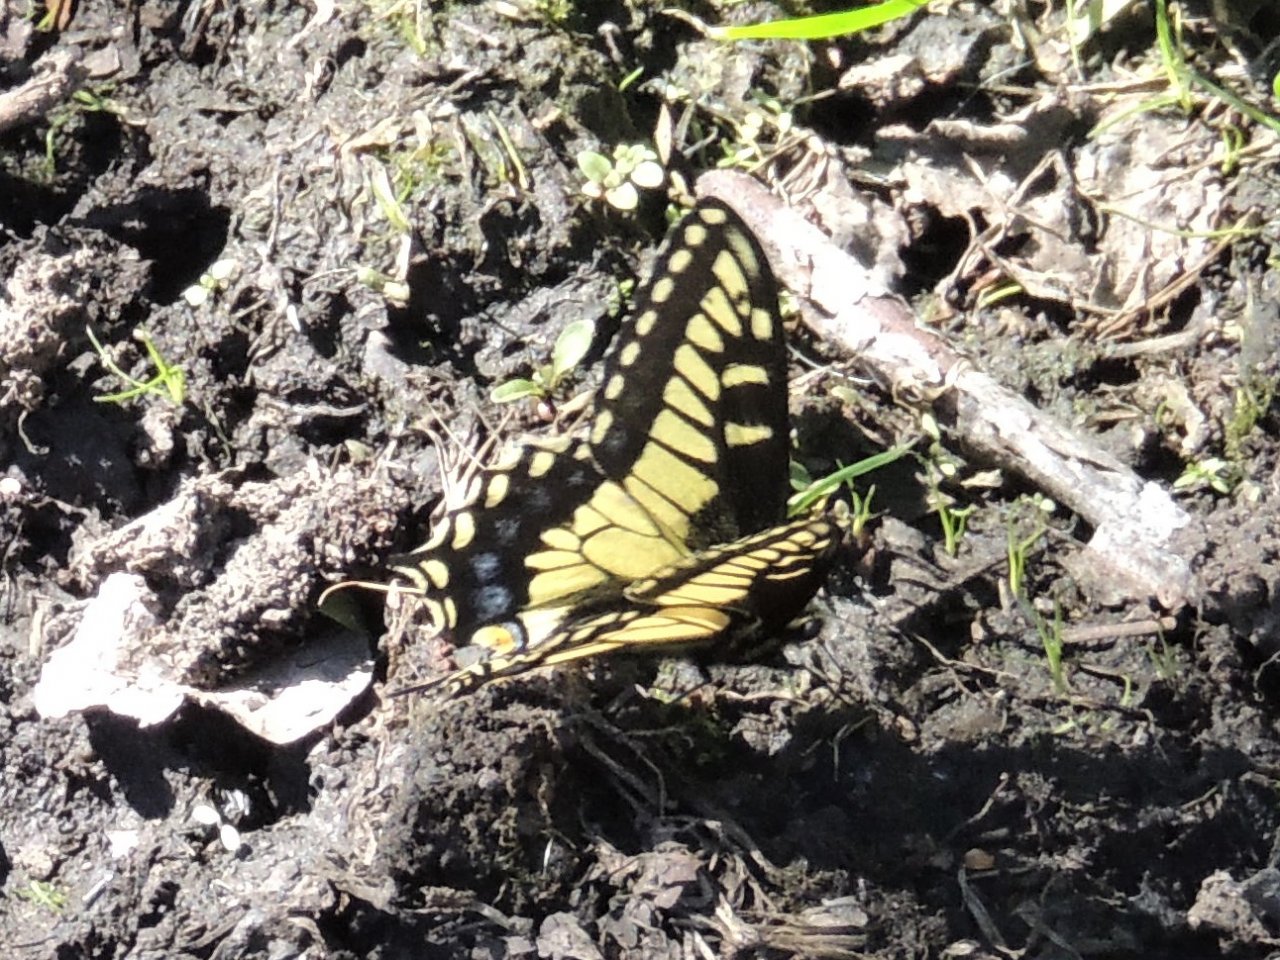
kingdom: Animalia
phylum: Arthropoda
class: Insecta
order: Lepidoptera
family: Papilionidae
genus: Papilio
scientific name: Papilio zelicaon
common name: Anise Swallowtail
